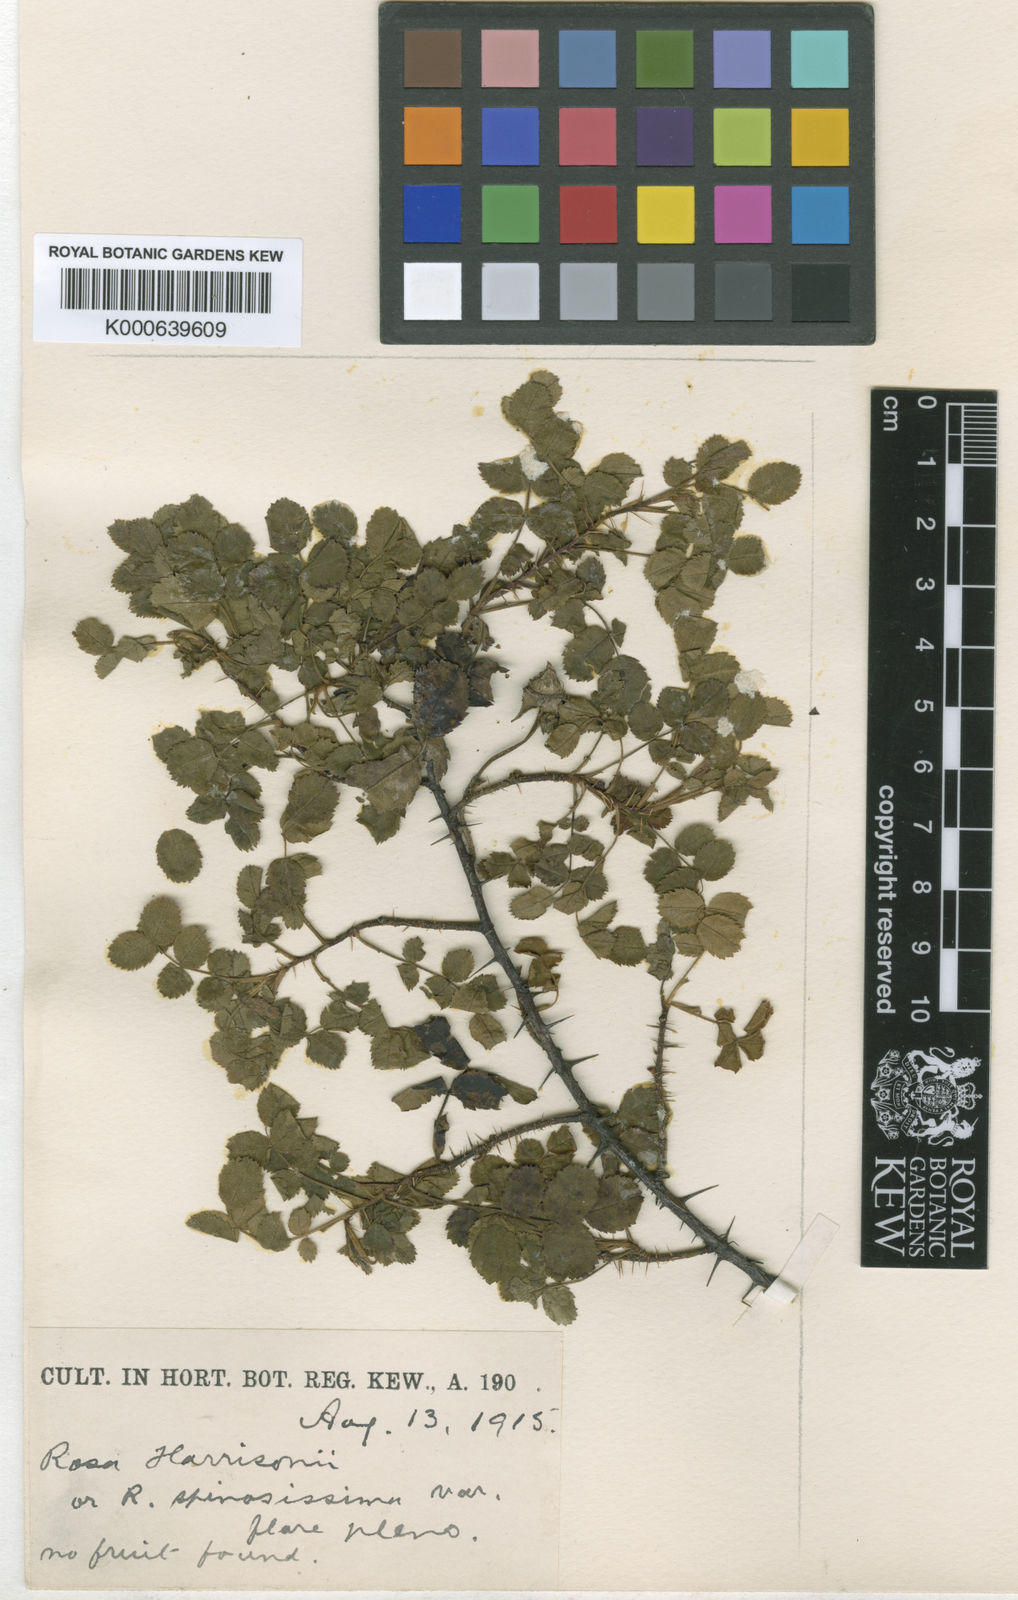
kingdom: Plantae
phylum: Tracheophyta
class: Magnoliopsida
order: Rosales
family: Rosaceae
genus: Rosa
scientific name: Rosa
